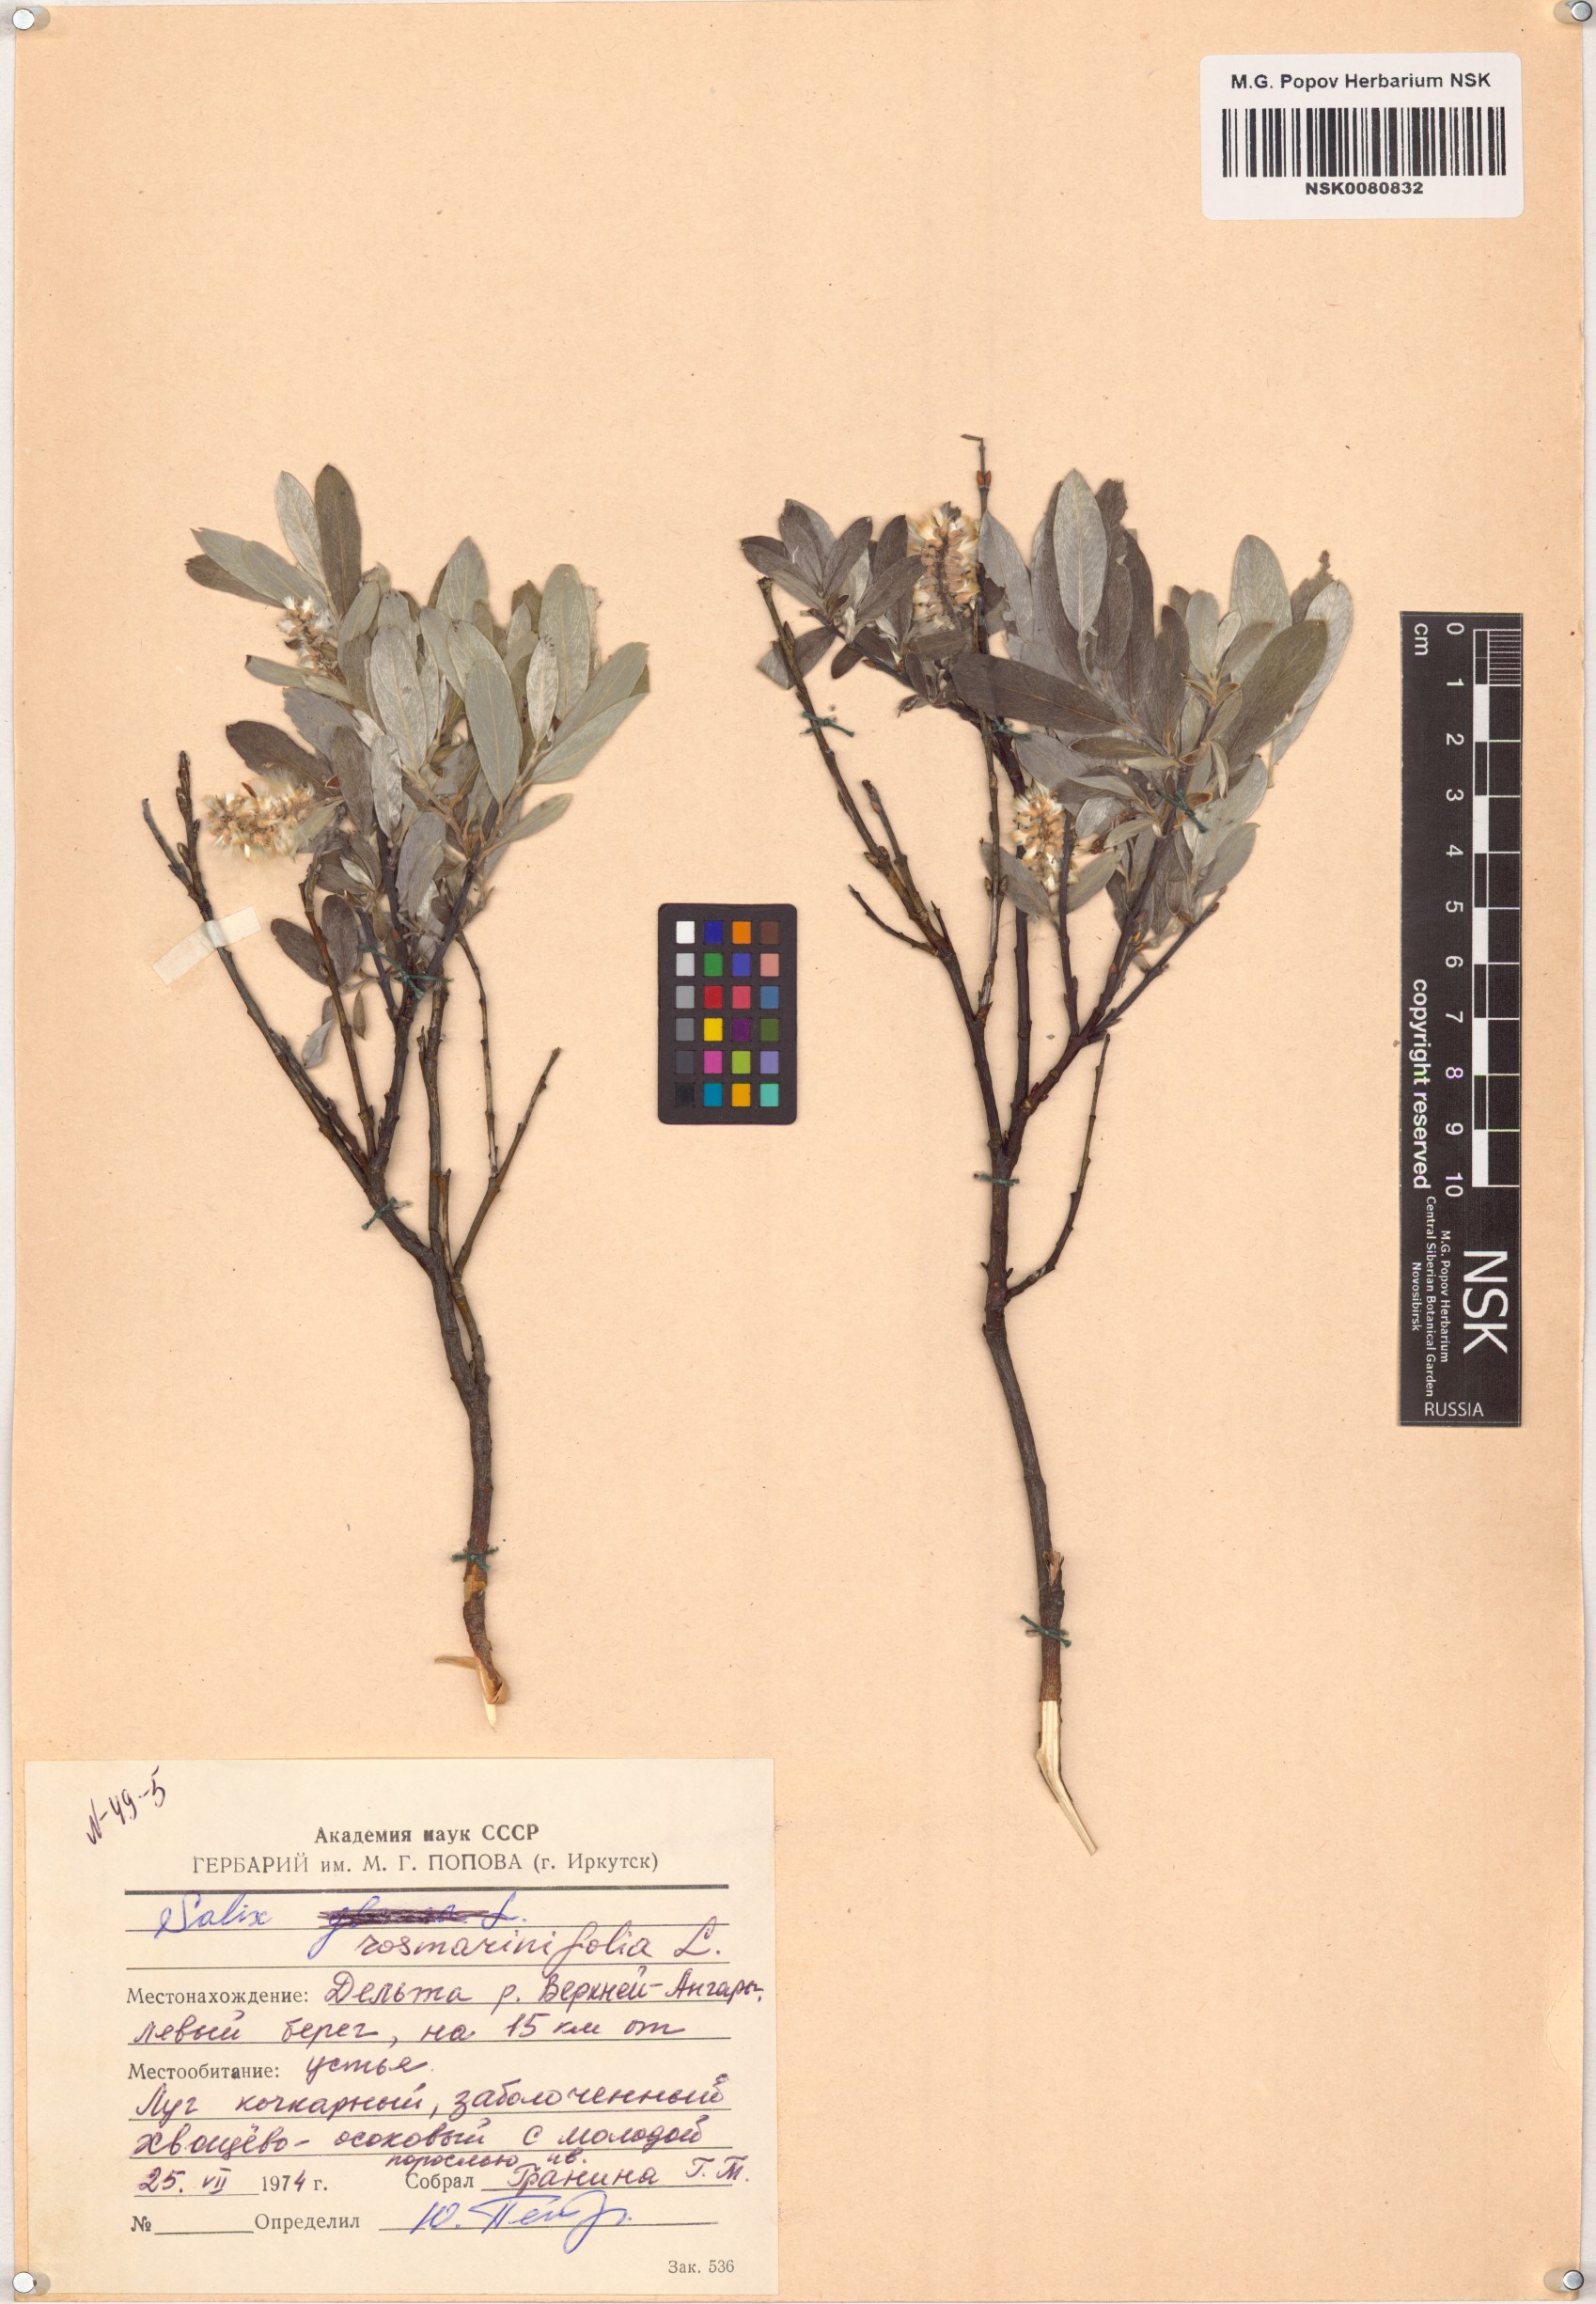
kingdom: Plantae
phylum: Tracheophyta
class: Magnoliopsida
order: Malpighiales
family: Salicaceae
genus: Salix
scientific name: Salix rosmarinifolia
